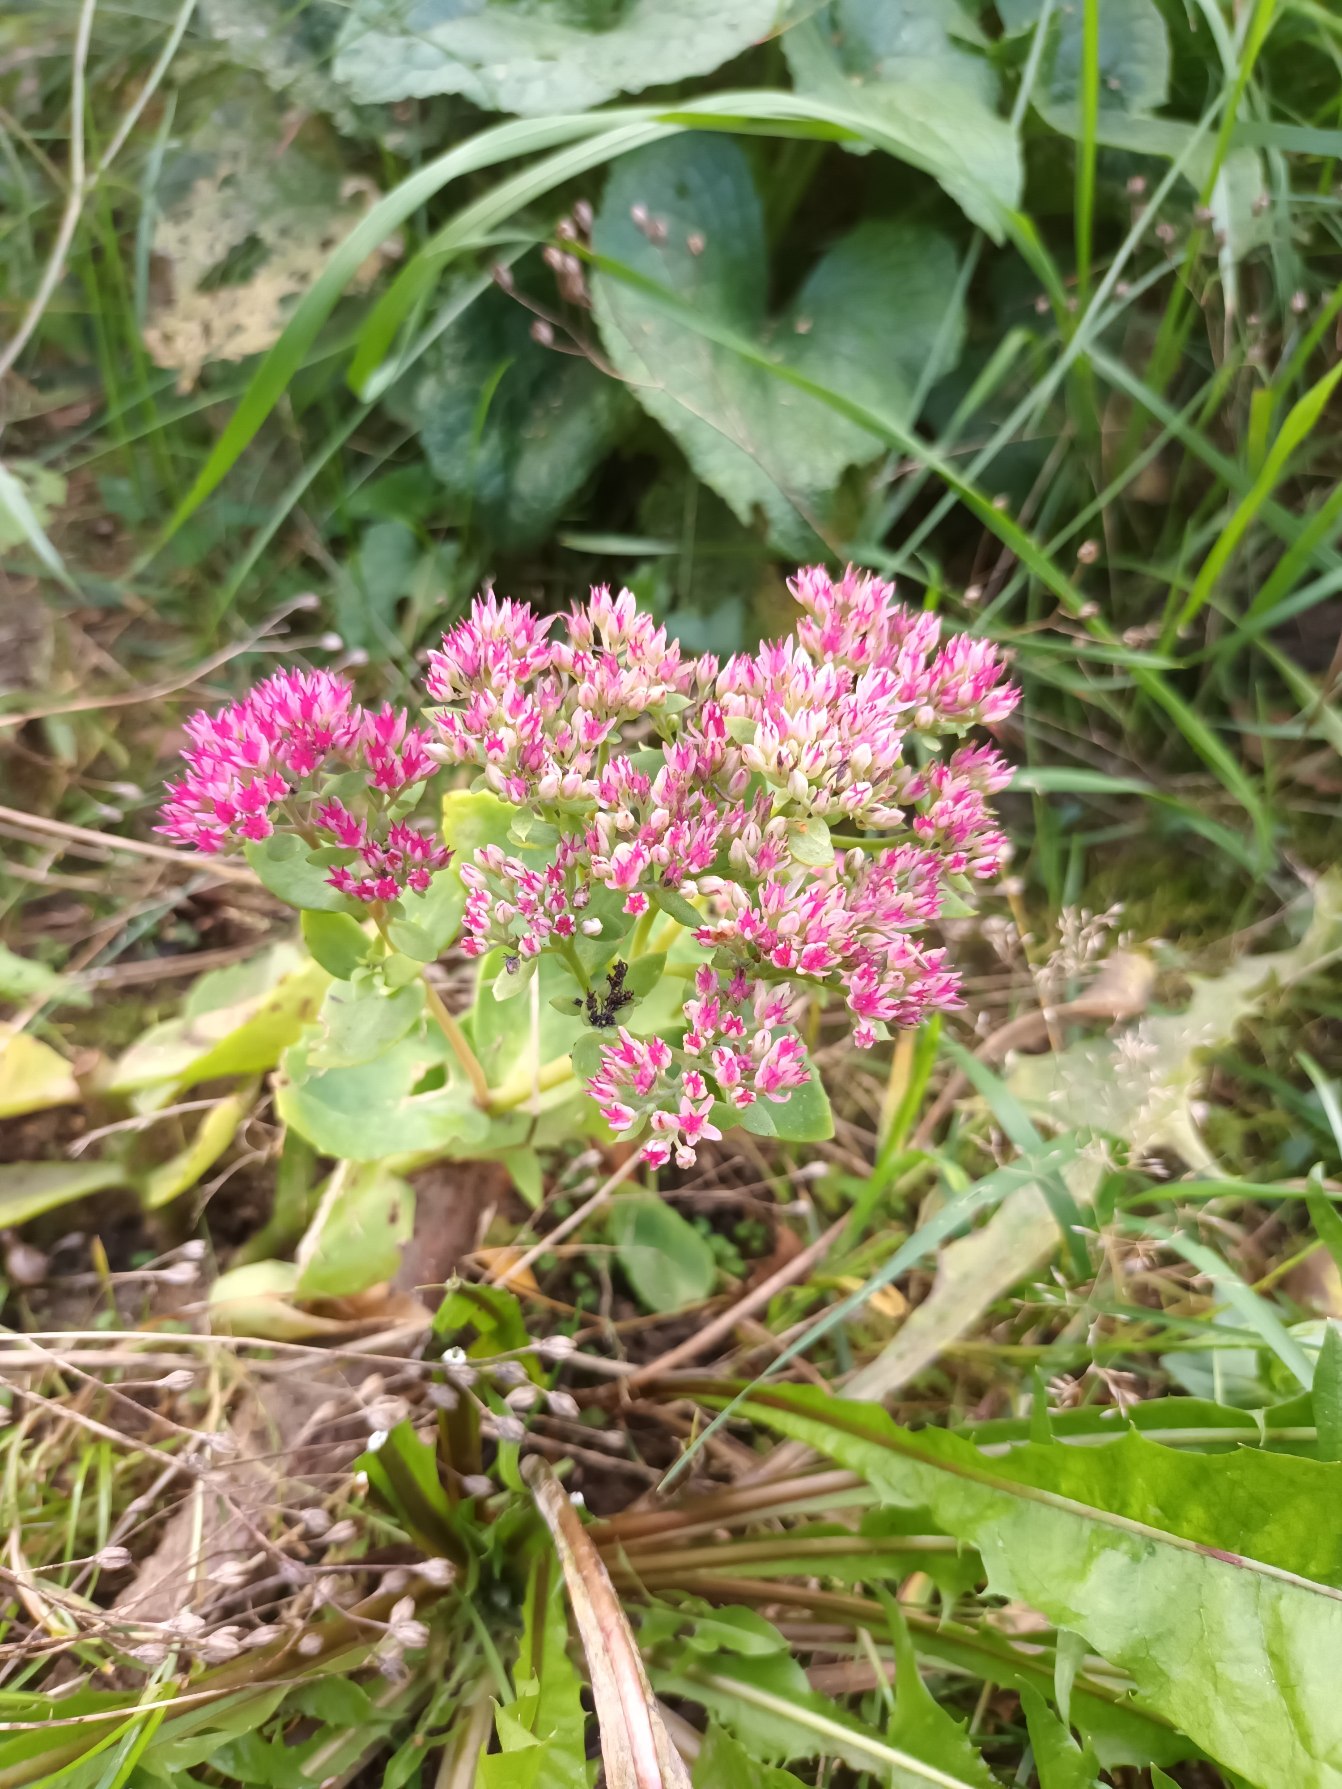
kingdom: Plantae
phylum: Tracheophyta
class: Magnoliopsida
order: Saxifragales
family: Crassulaceae
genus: Hylotelephium
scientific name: Hylotelephium
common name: Kinesisk sankthansurt × sankthansurt
